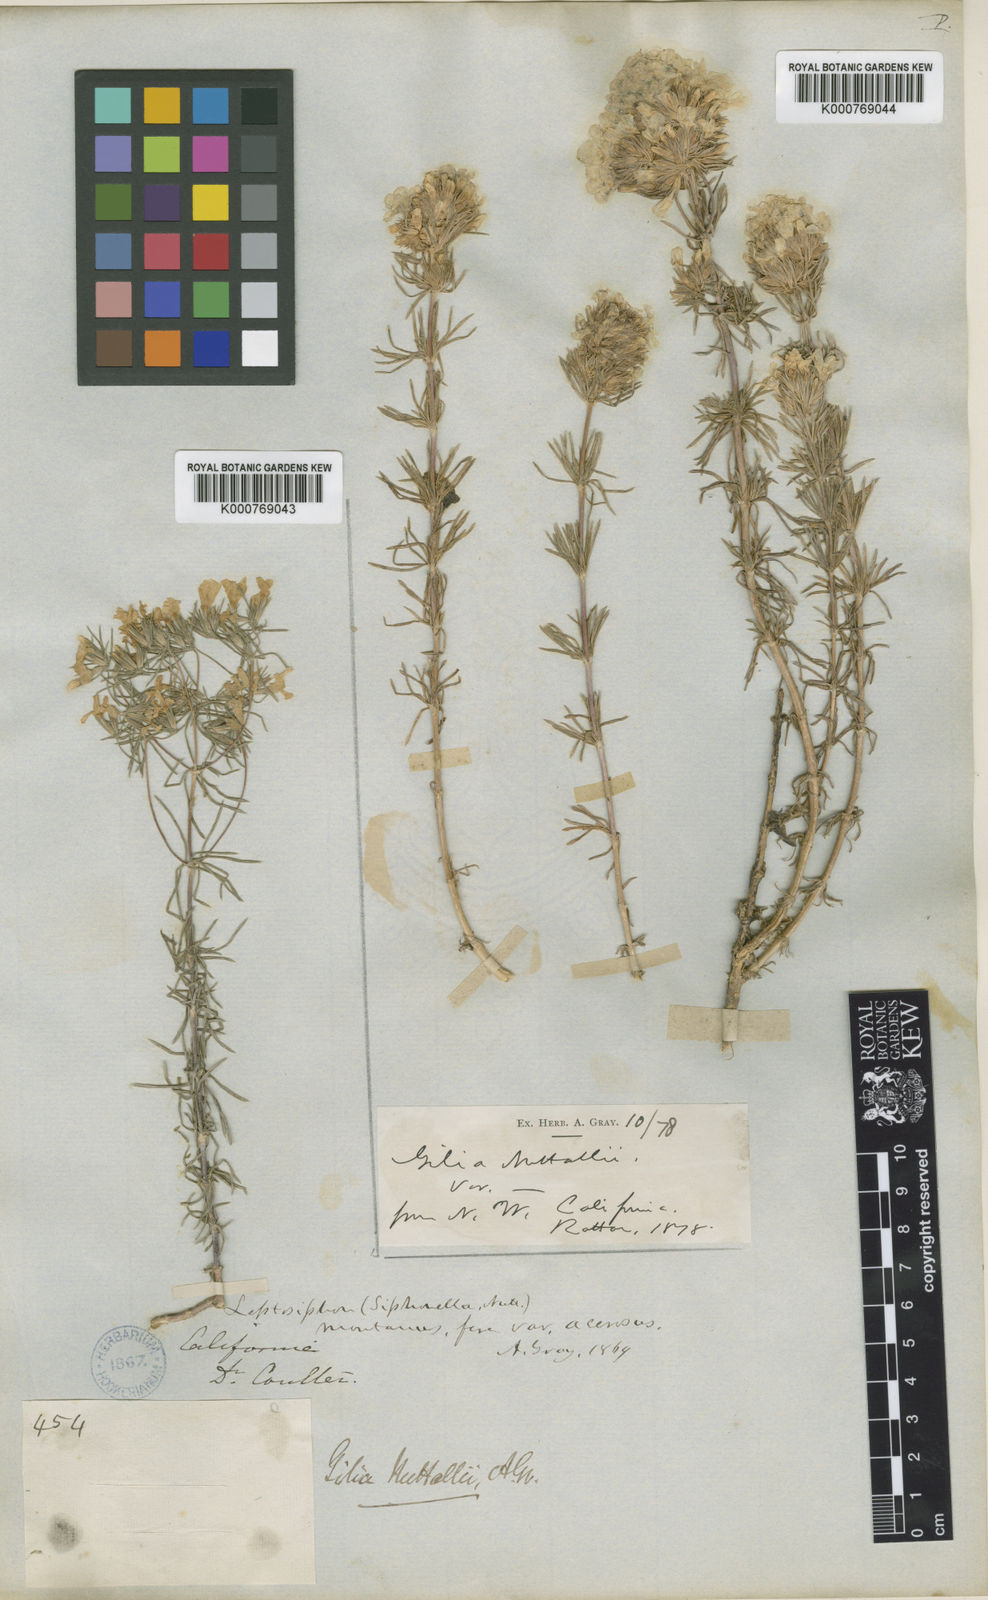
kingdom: Plantae
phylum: Tracheophyta
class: Magnoliopsida
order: Ericales
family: Polemoniaceae
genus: Leptosiphon
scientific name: Leptosiphon nuttallii
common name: Nuttall's linanthus
